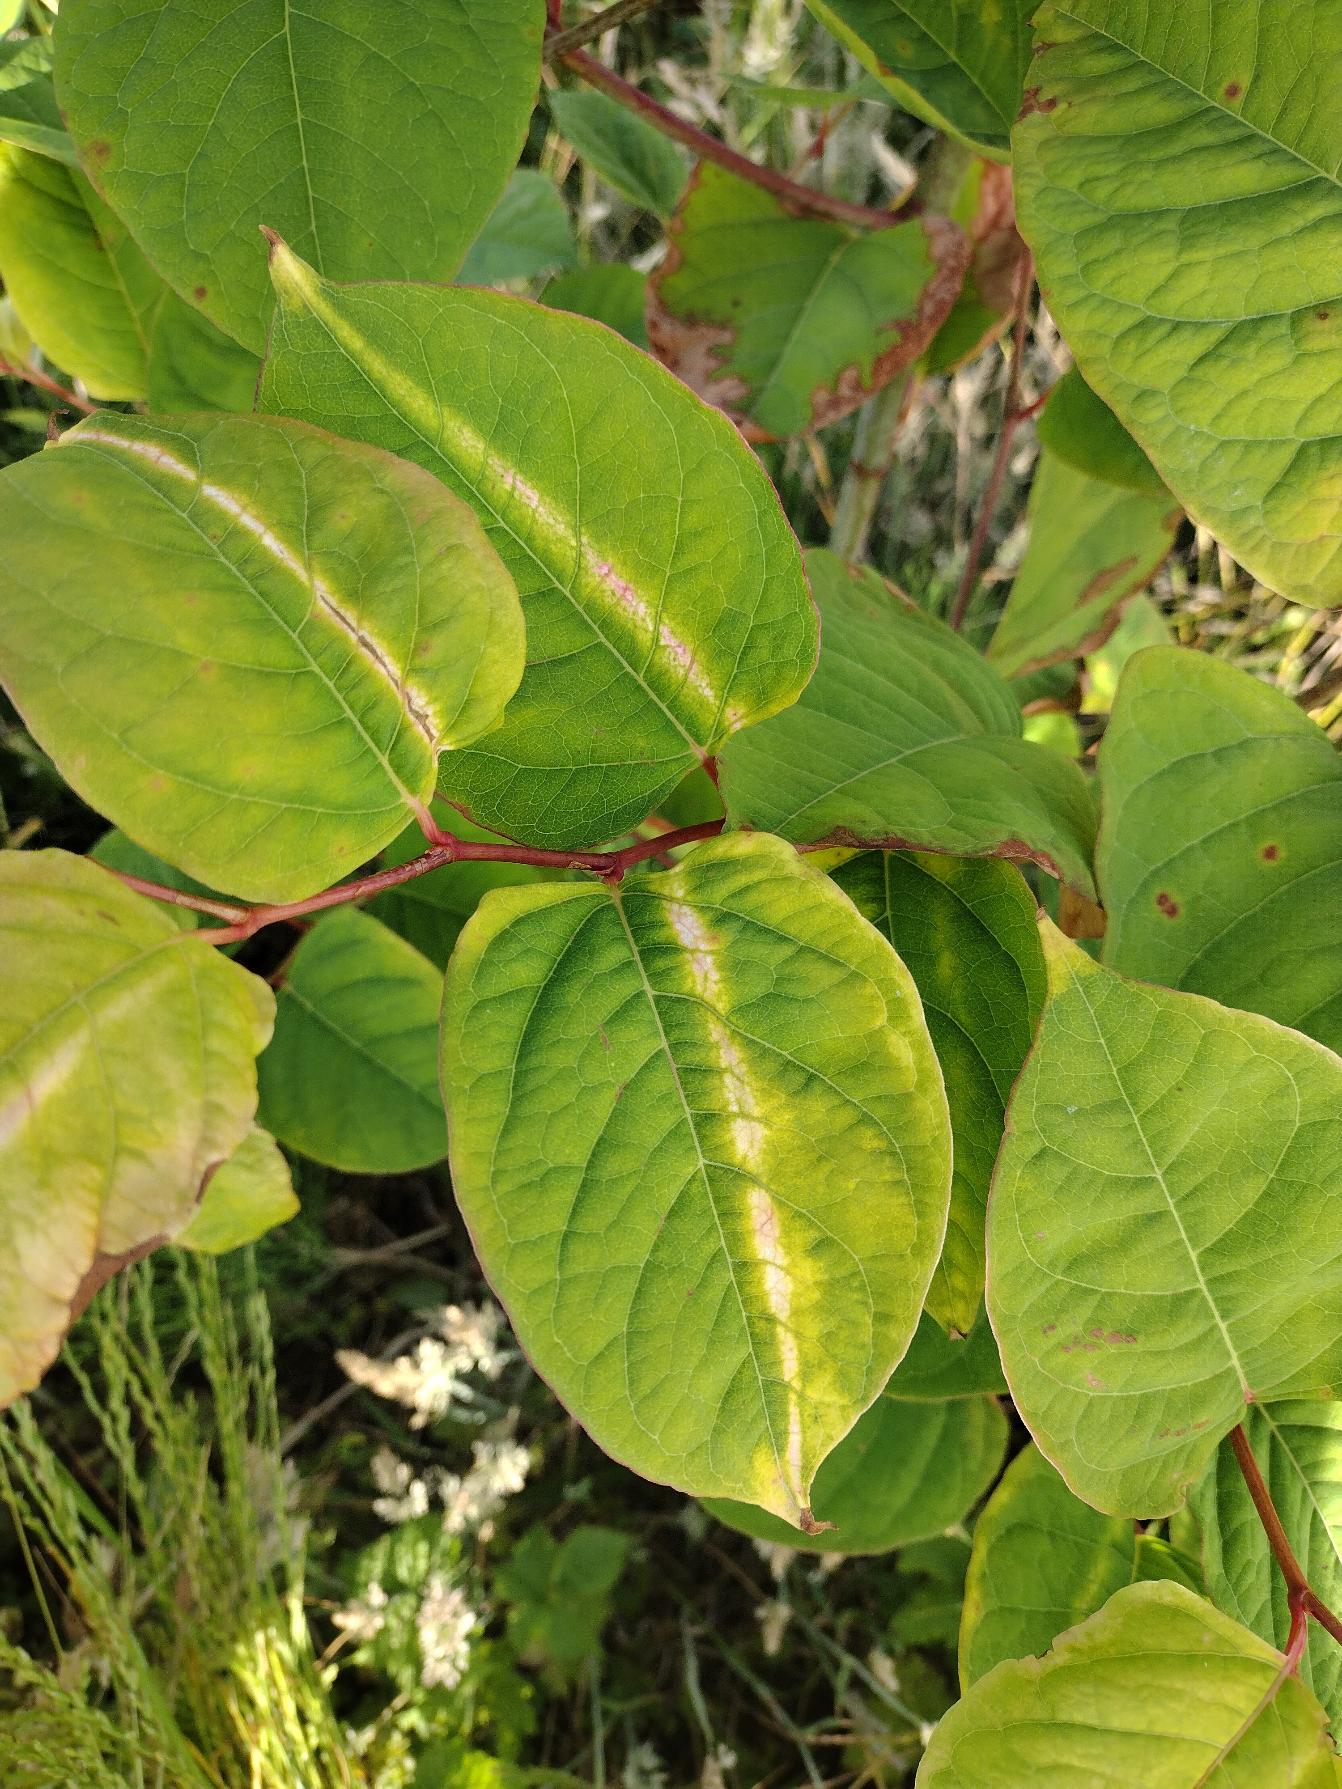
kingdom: Plantae
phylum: Tracheophyta
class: Magnoliopsida
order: Caryophyllales
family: Polygonaceae
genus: Reynoutria
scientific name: Reynoutria japonica
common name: Japan-pileurt
